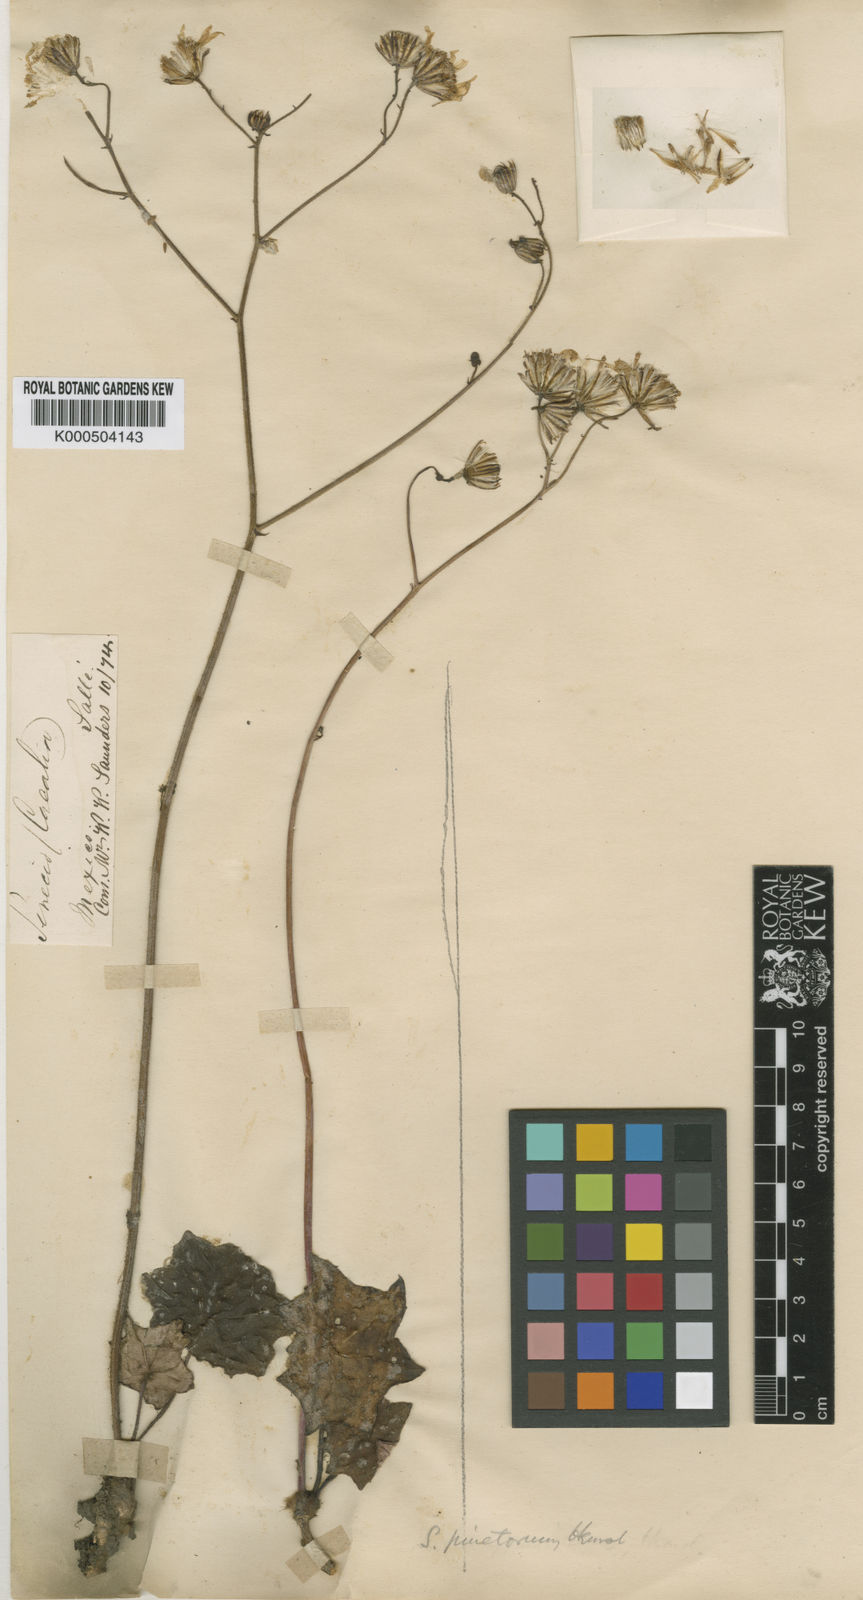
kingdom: Plantae
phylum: Tracheophyta
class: Magnoliopsida
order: Asterales
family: Asteraceae
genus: Psacaliopsis
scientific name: Psacaliopsis pinetorum
